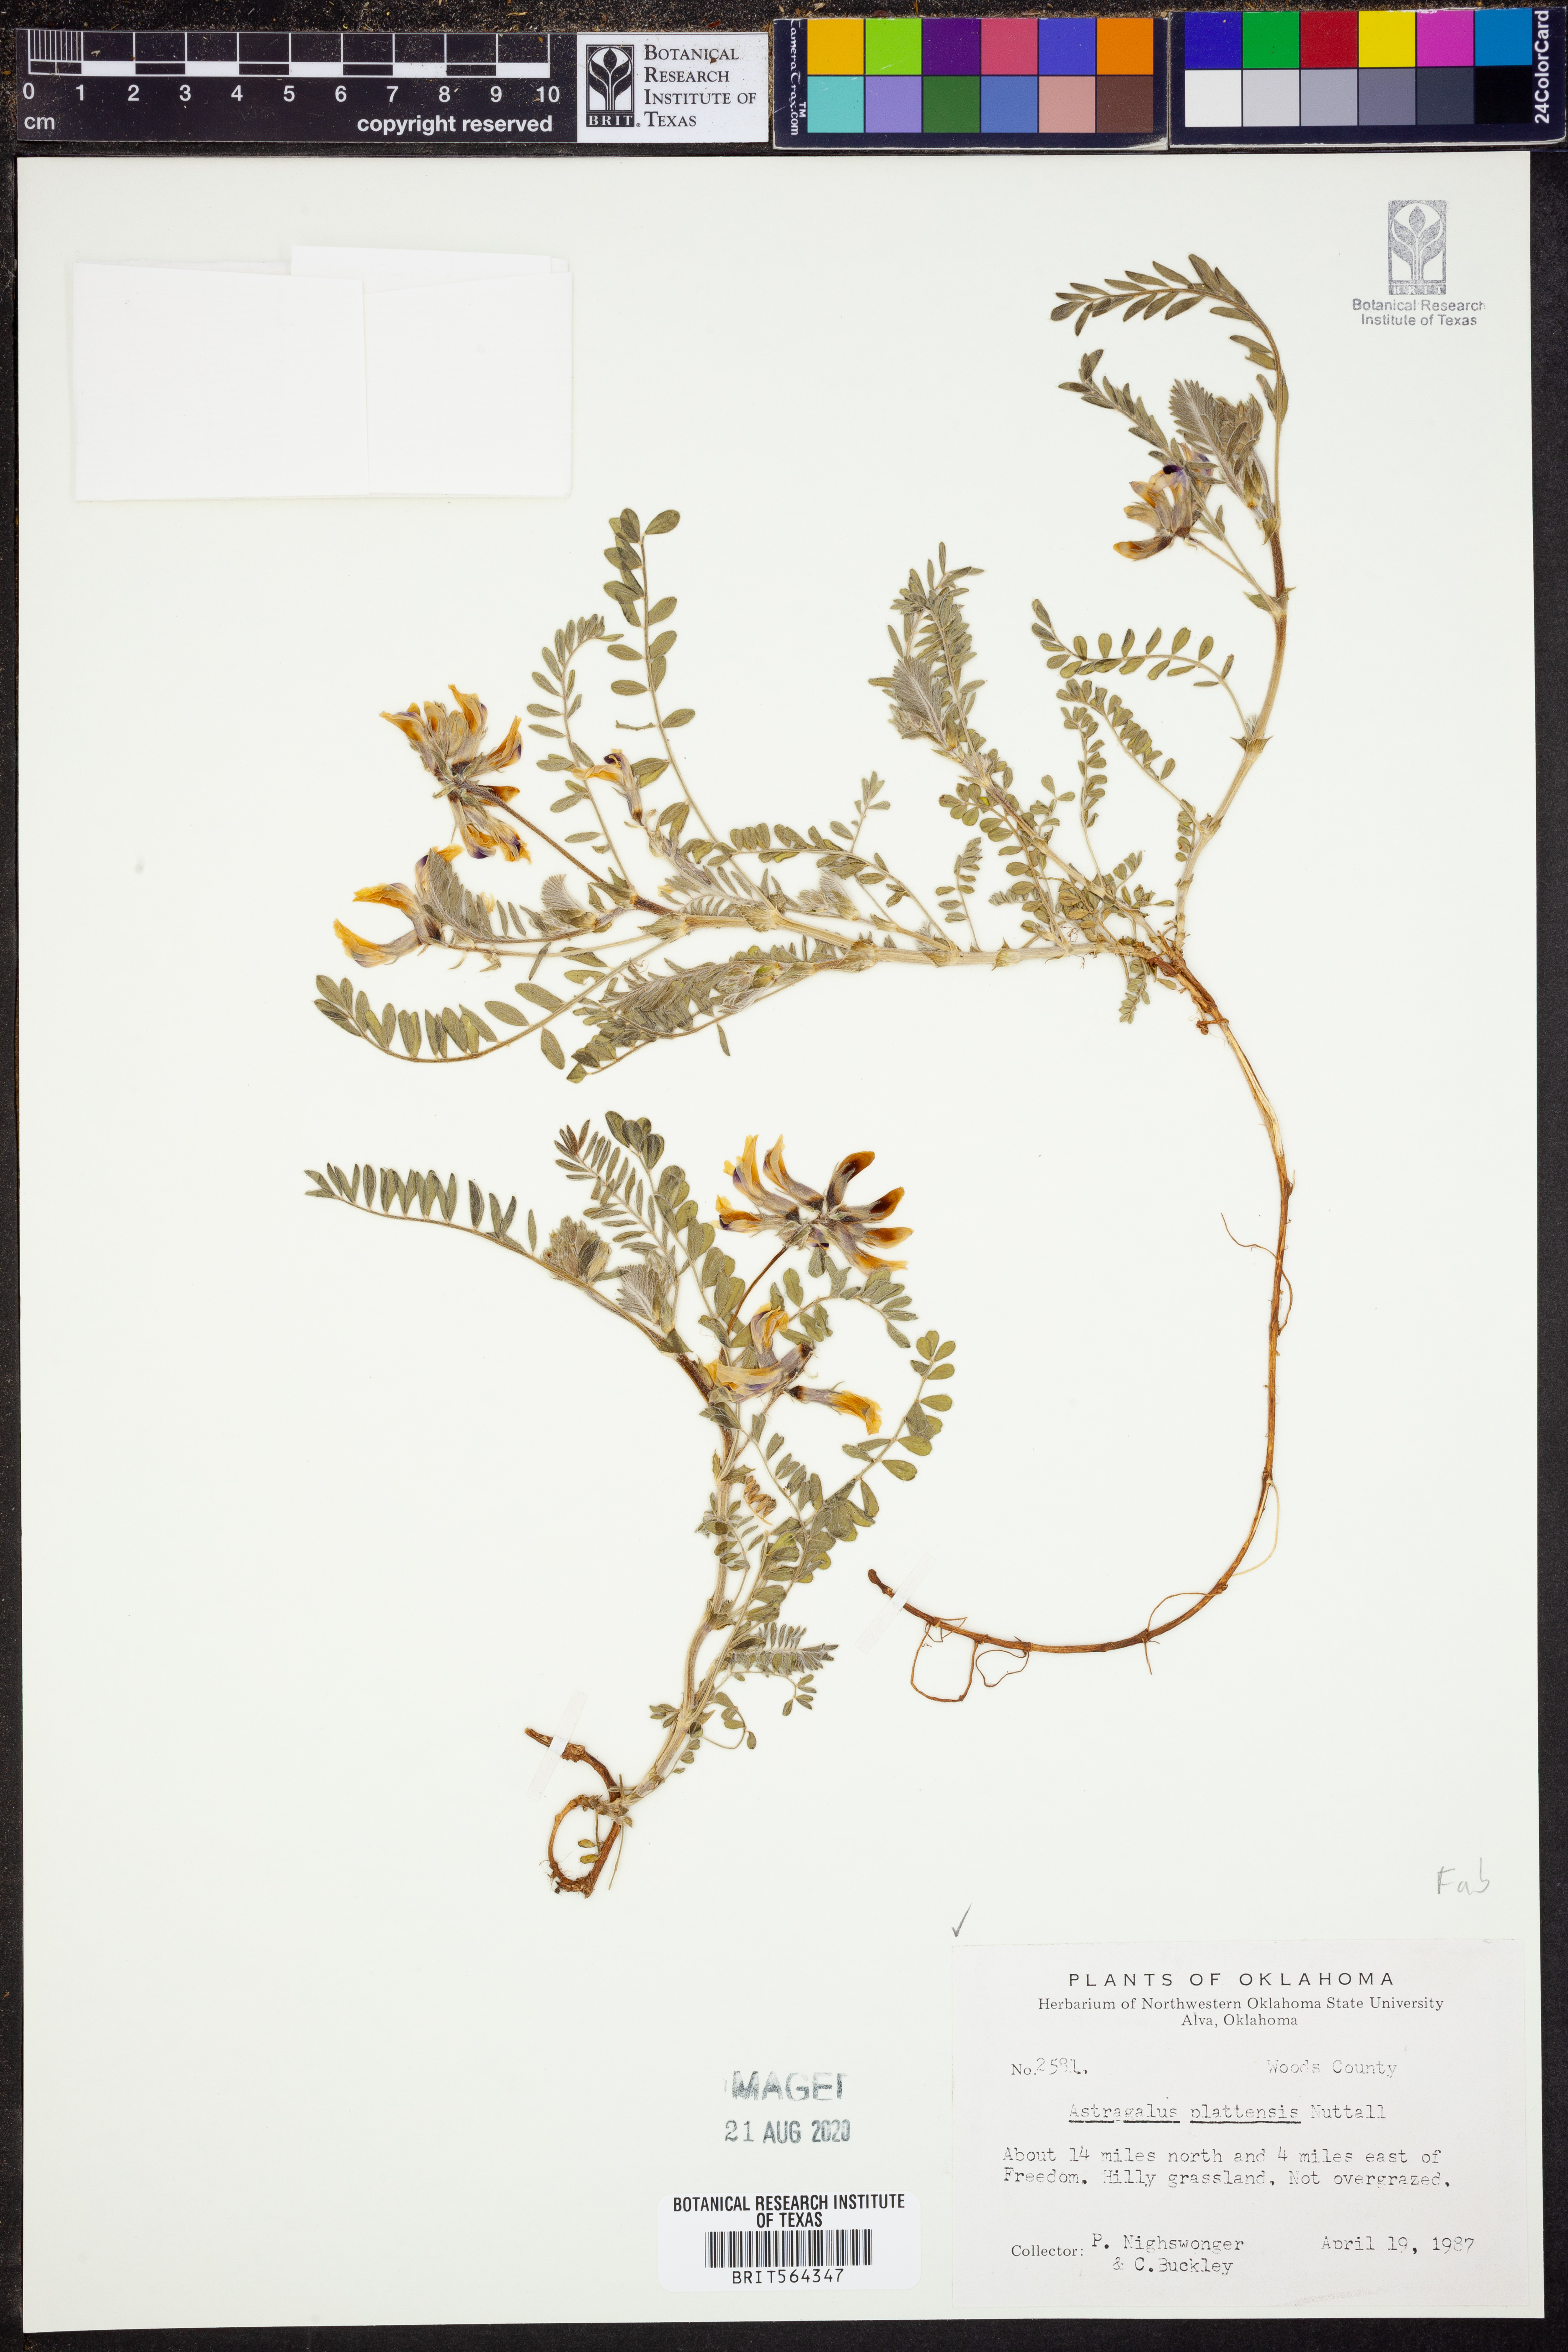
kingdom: Plantae
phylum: Tracheophyta
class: Magnoliopsida
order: Fabales
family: Fabaceae
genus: Astragalus
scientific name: Astragalus plattensis
